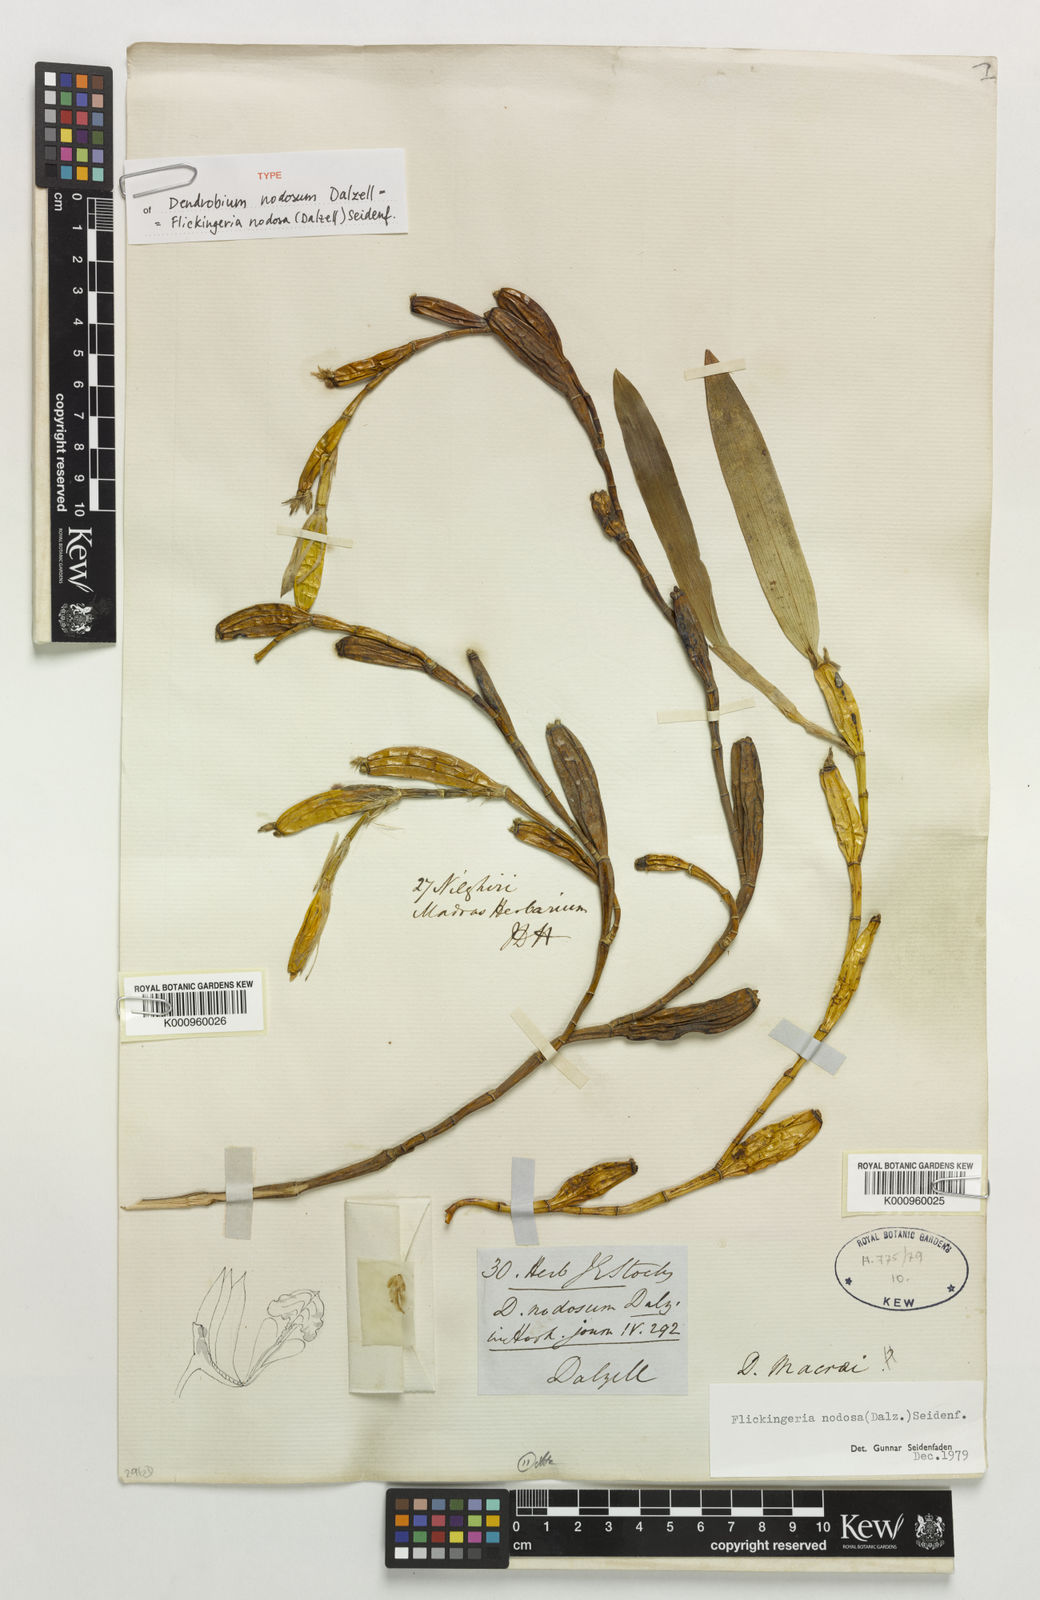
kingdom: Plantae
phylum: Tracheophyta
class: Liliopsida
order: Asparagales
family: Orchidaceae
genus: Dendrobium
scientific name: Dendrobium nodosum
